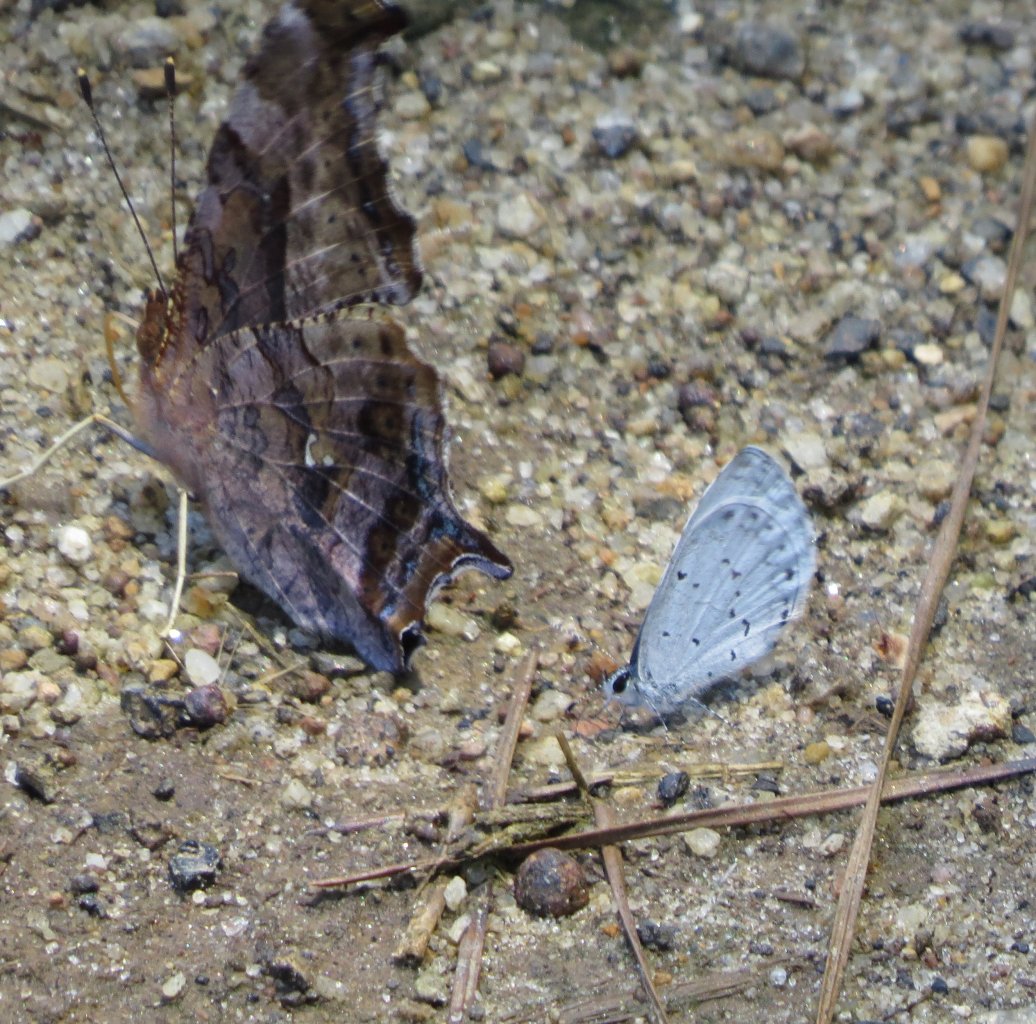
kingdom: Animalia
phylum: Arthropoda
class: Insecta
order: Lepidoptera
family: Lycaenidae
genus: Cyaniris
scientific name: Cyaniris neglecta
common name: Summer Azure
